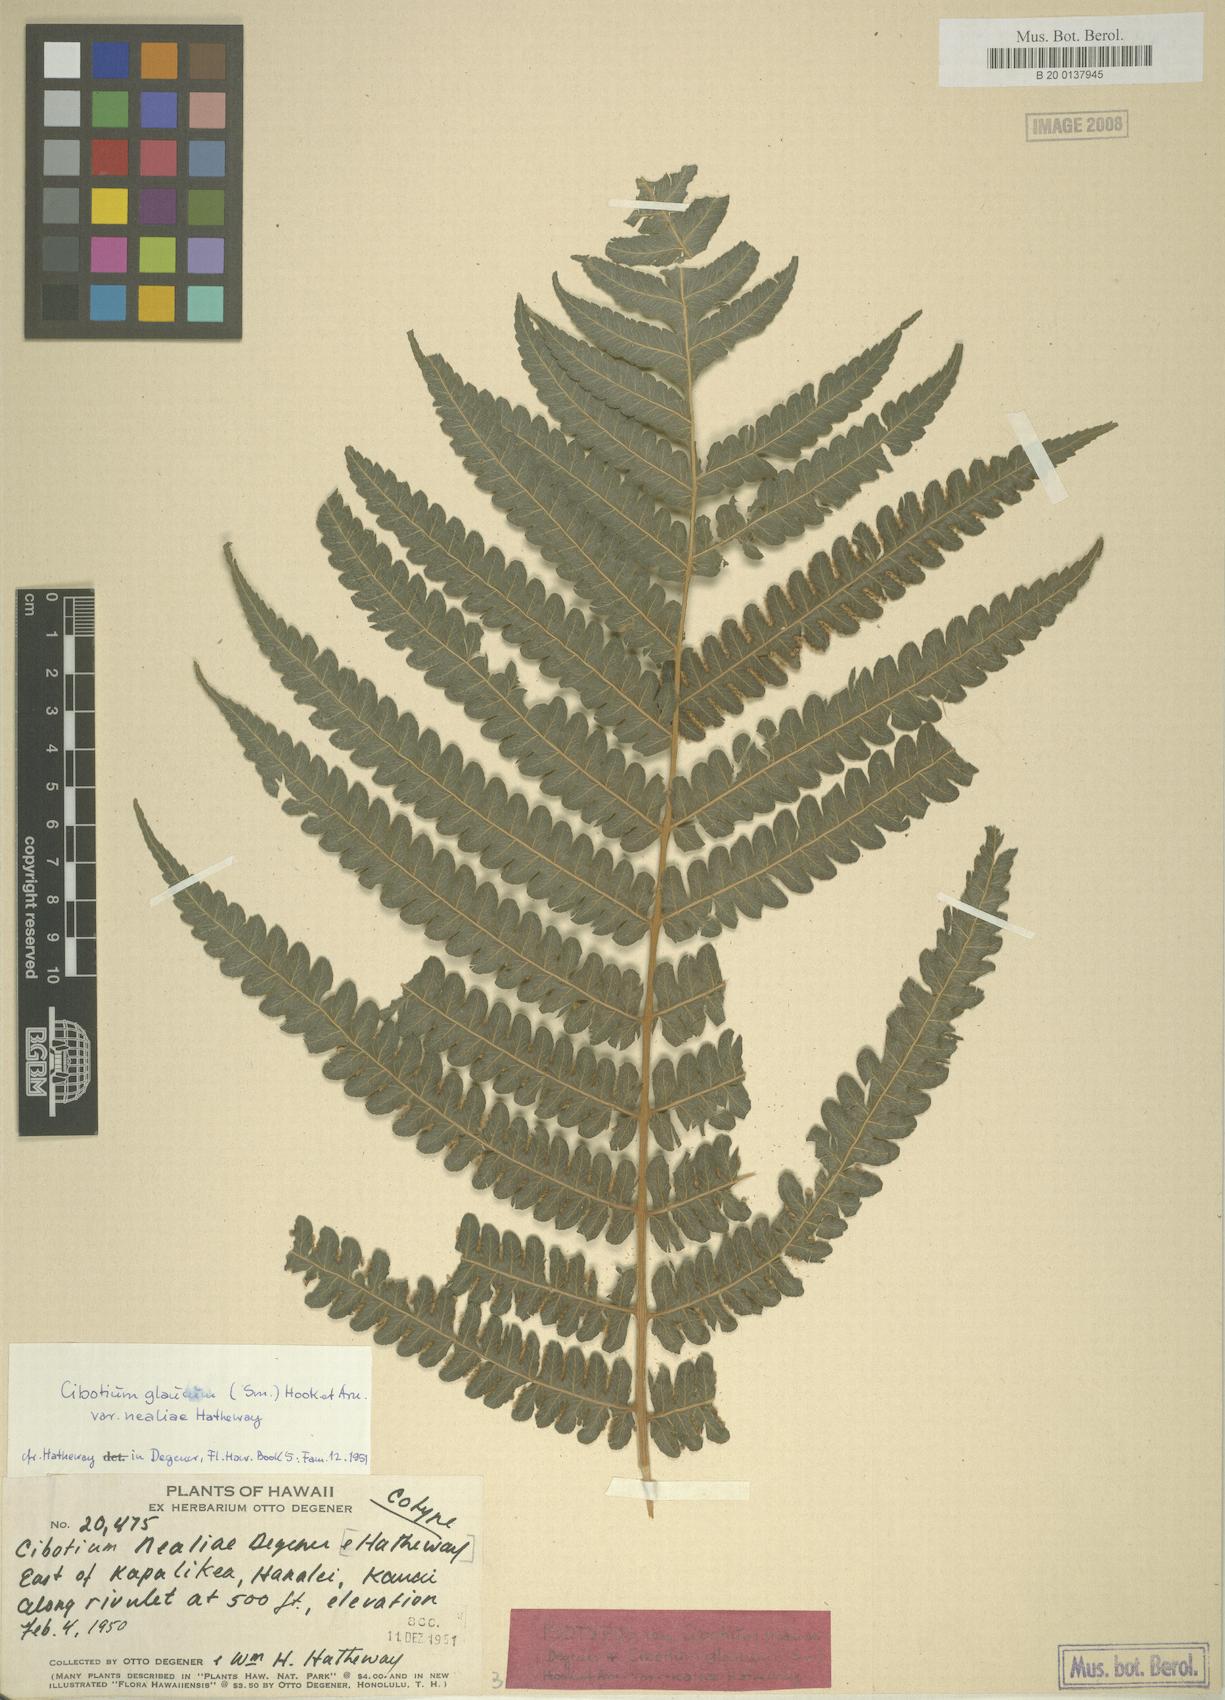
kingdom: Plantae
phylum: Tracheophyta
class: Polypodiopsida
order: Cyatheales
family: Cibotiaceae
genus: Cibotium
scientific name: Cibotium nealiae
